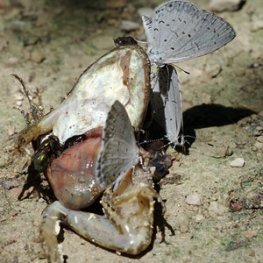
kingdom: Animalia
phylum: Arthropoda
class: Insecta
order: Lepidoptera
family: Lycaenidae
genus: Cyaniris
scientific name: Cyaniris neglecta
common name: Summer Azure
